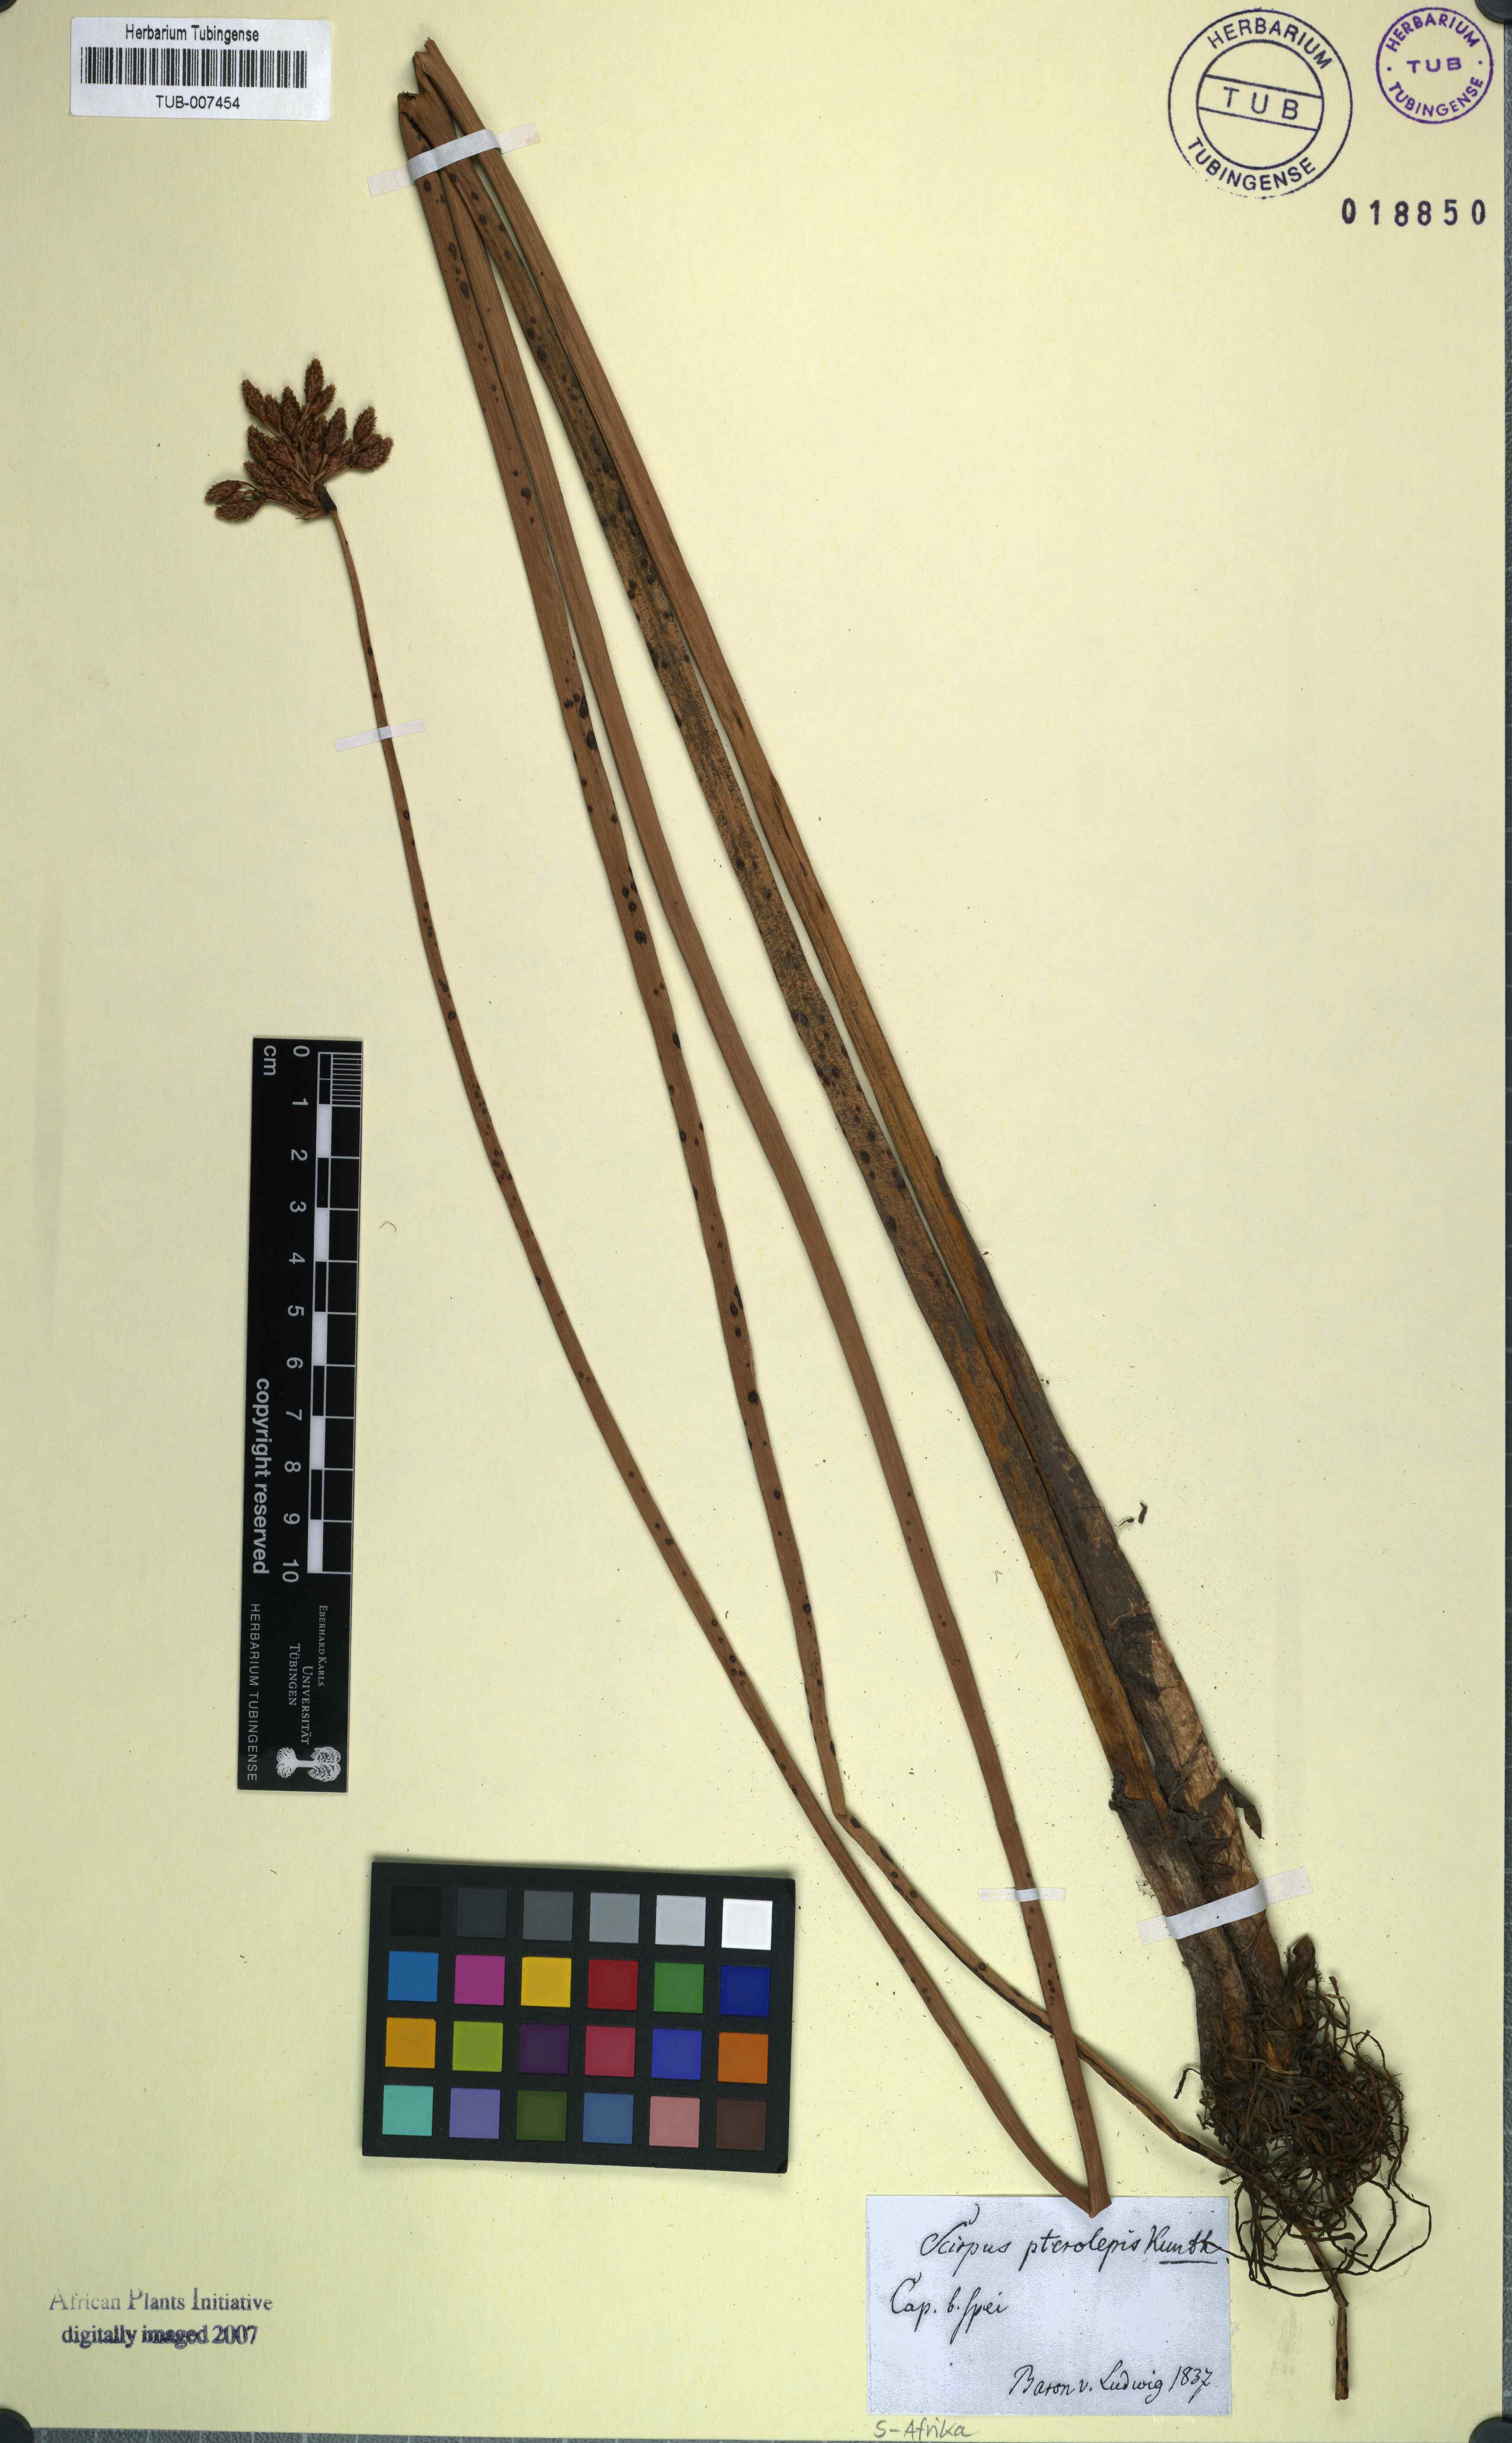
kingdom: Plantae
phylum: Tracheophyta
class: Liliopsida
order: Poales
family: Cyperaceae
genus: Schoenoplectus
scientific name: Schoenoplectus litoralis
